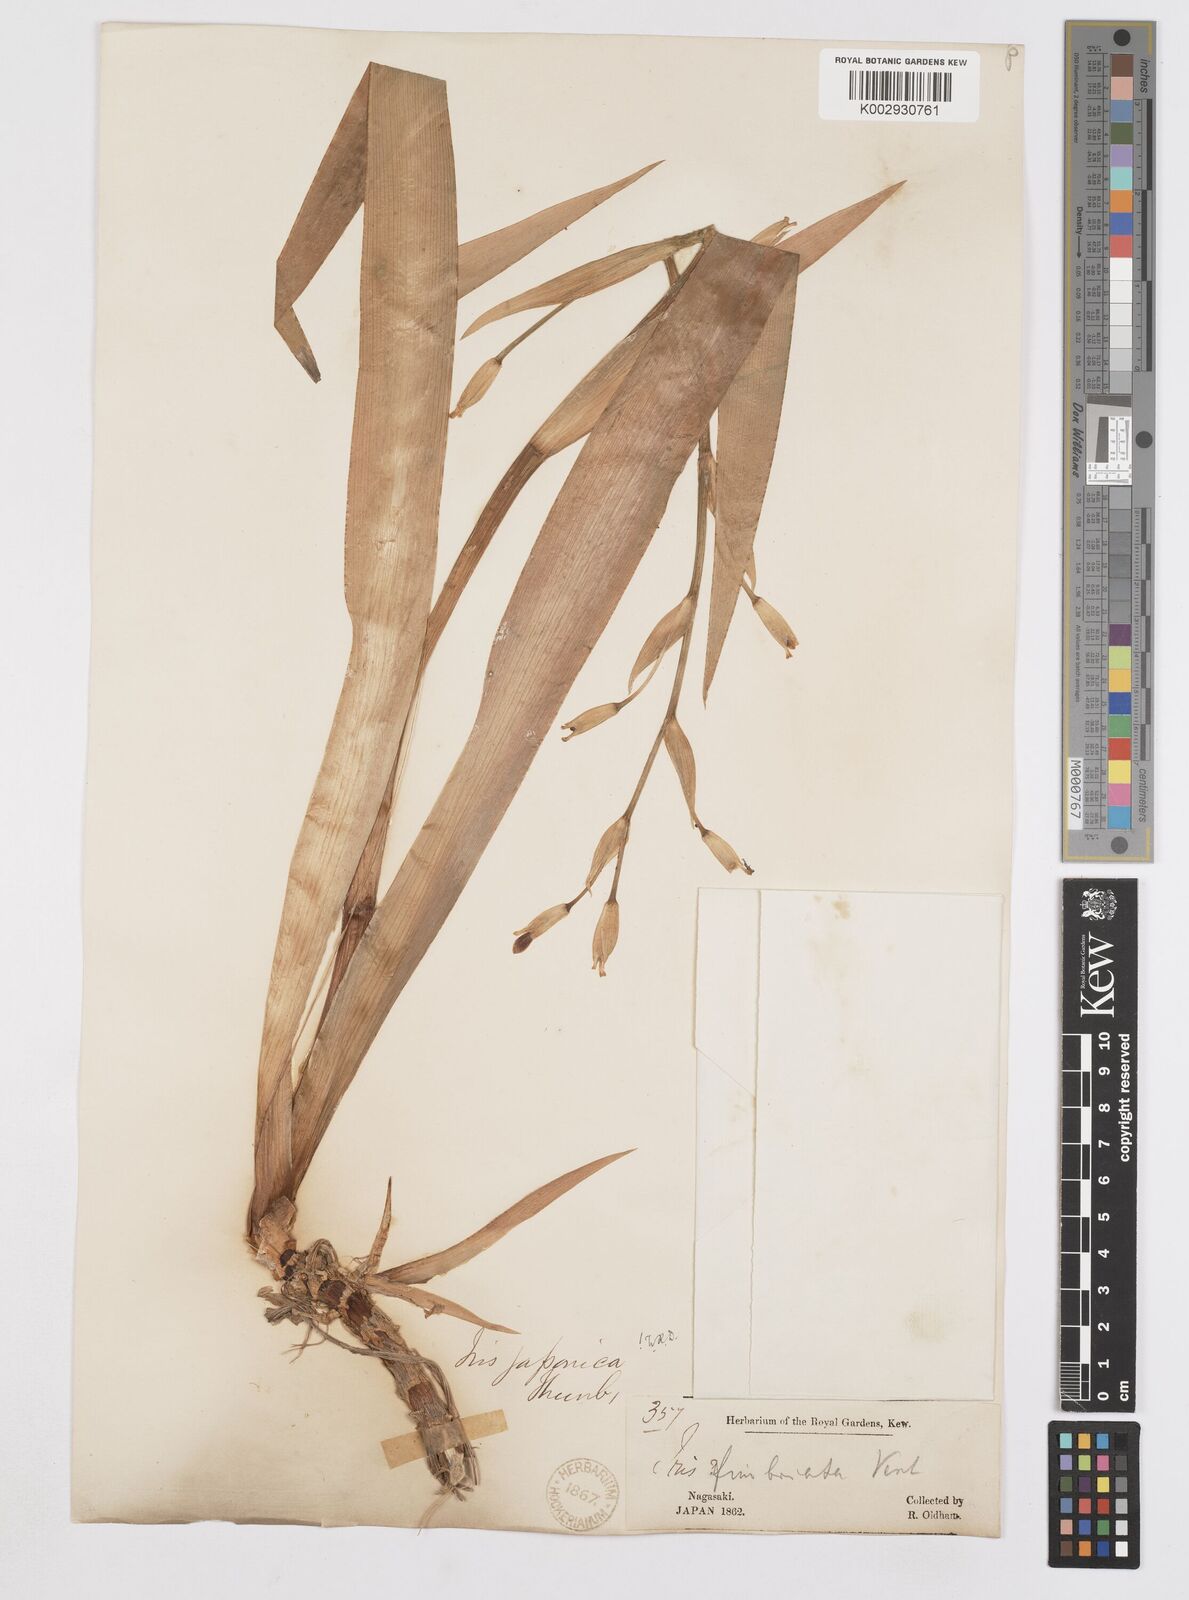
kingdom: Plantae
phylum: Tracheophyta
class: Liliopsida
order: Asparagales
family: Iridaceae
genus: Iris
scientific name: Iris japonica
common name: Butterfly-flower
